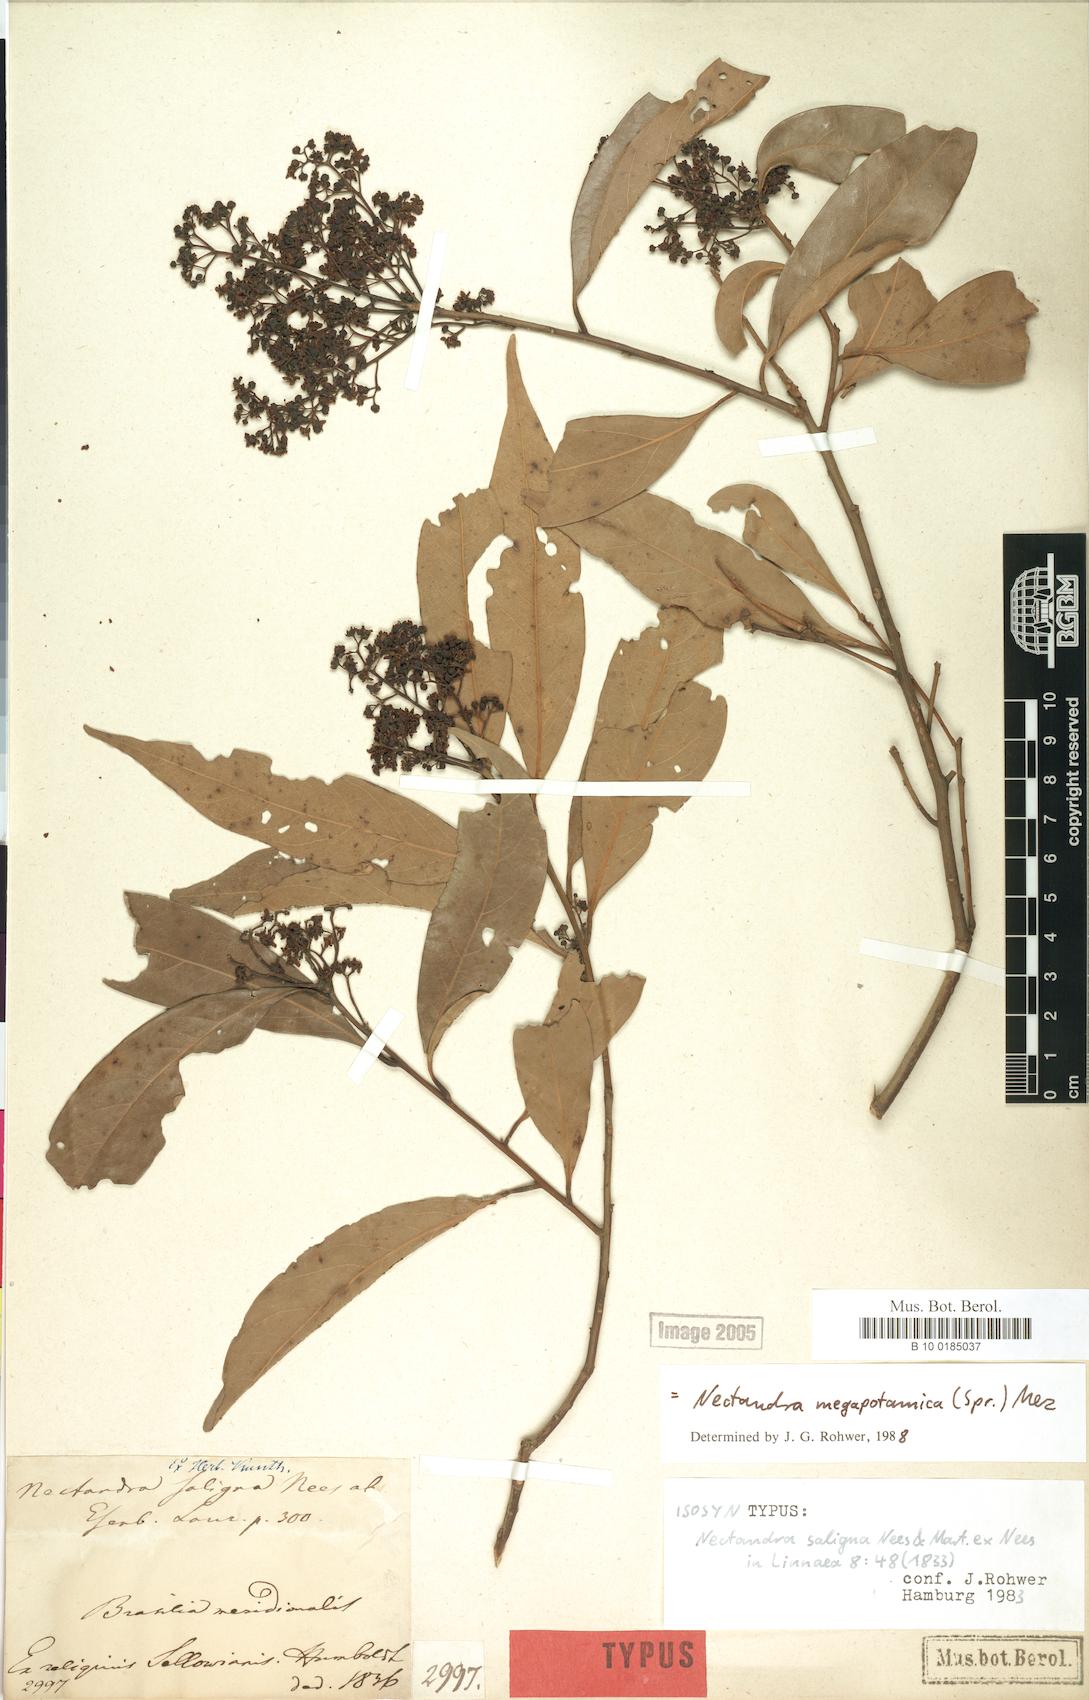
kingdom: Plantae
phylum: Tracheophyta
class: Magnoliopsida
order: Laurales
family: Lauraceae
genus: Nectandra
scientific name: Nectandra megapotamica
